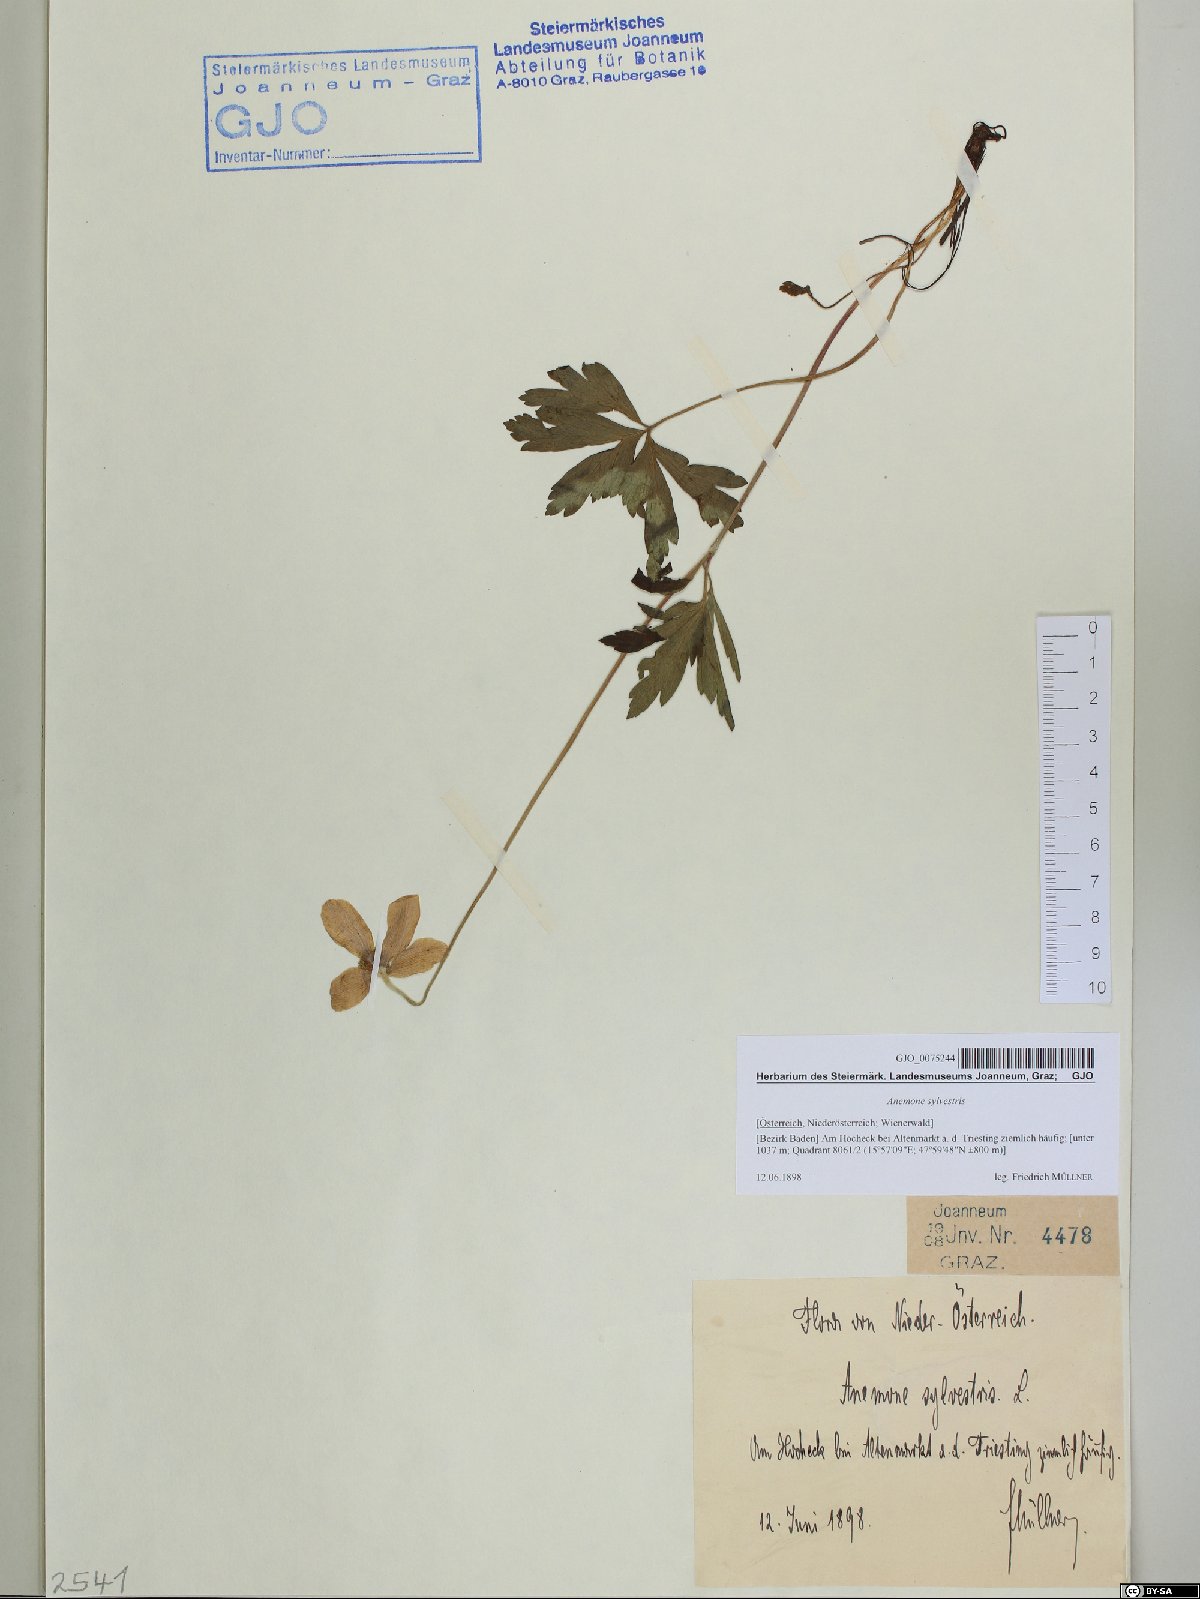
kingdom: Plantae
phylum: Tracheophyta
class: Magnoliopsida
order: Ranunculales
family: Ranunculaceae
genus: Anemone
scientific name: Anemone sylvestris
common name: Snowdrop anemone
